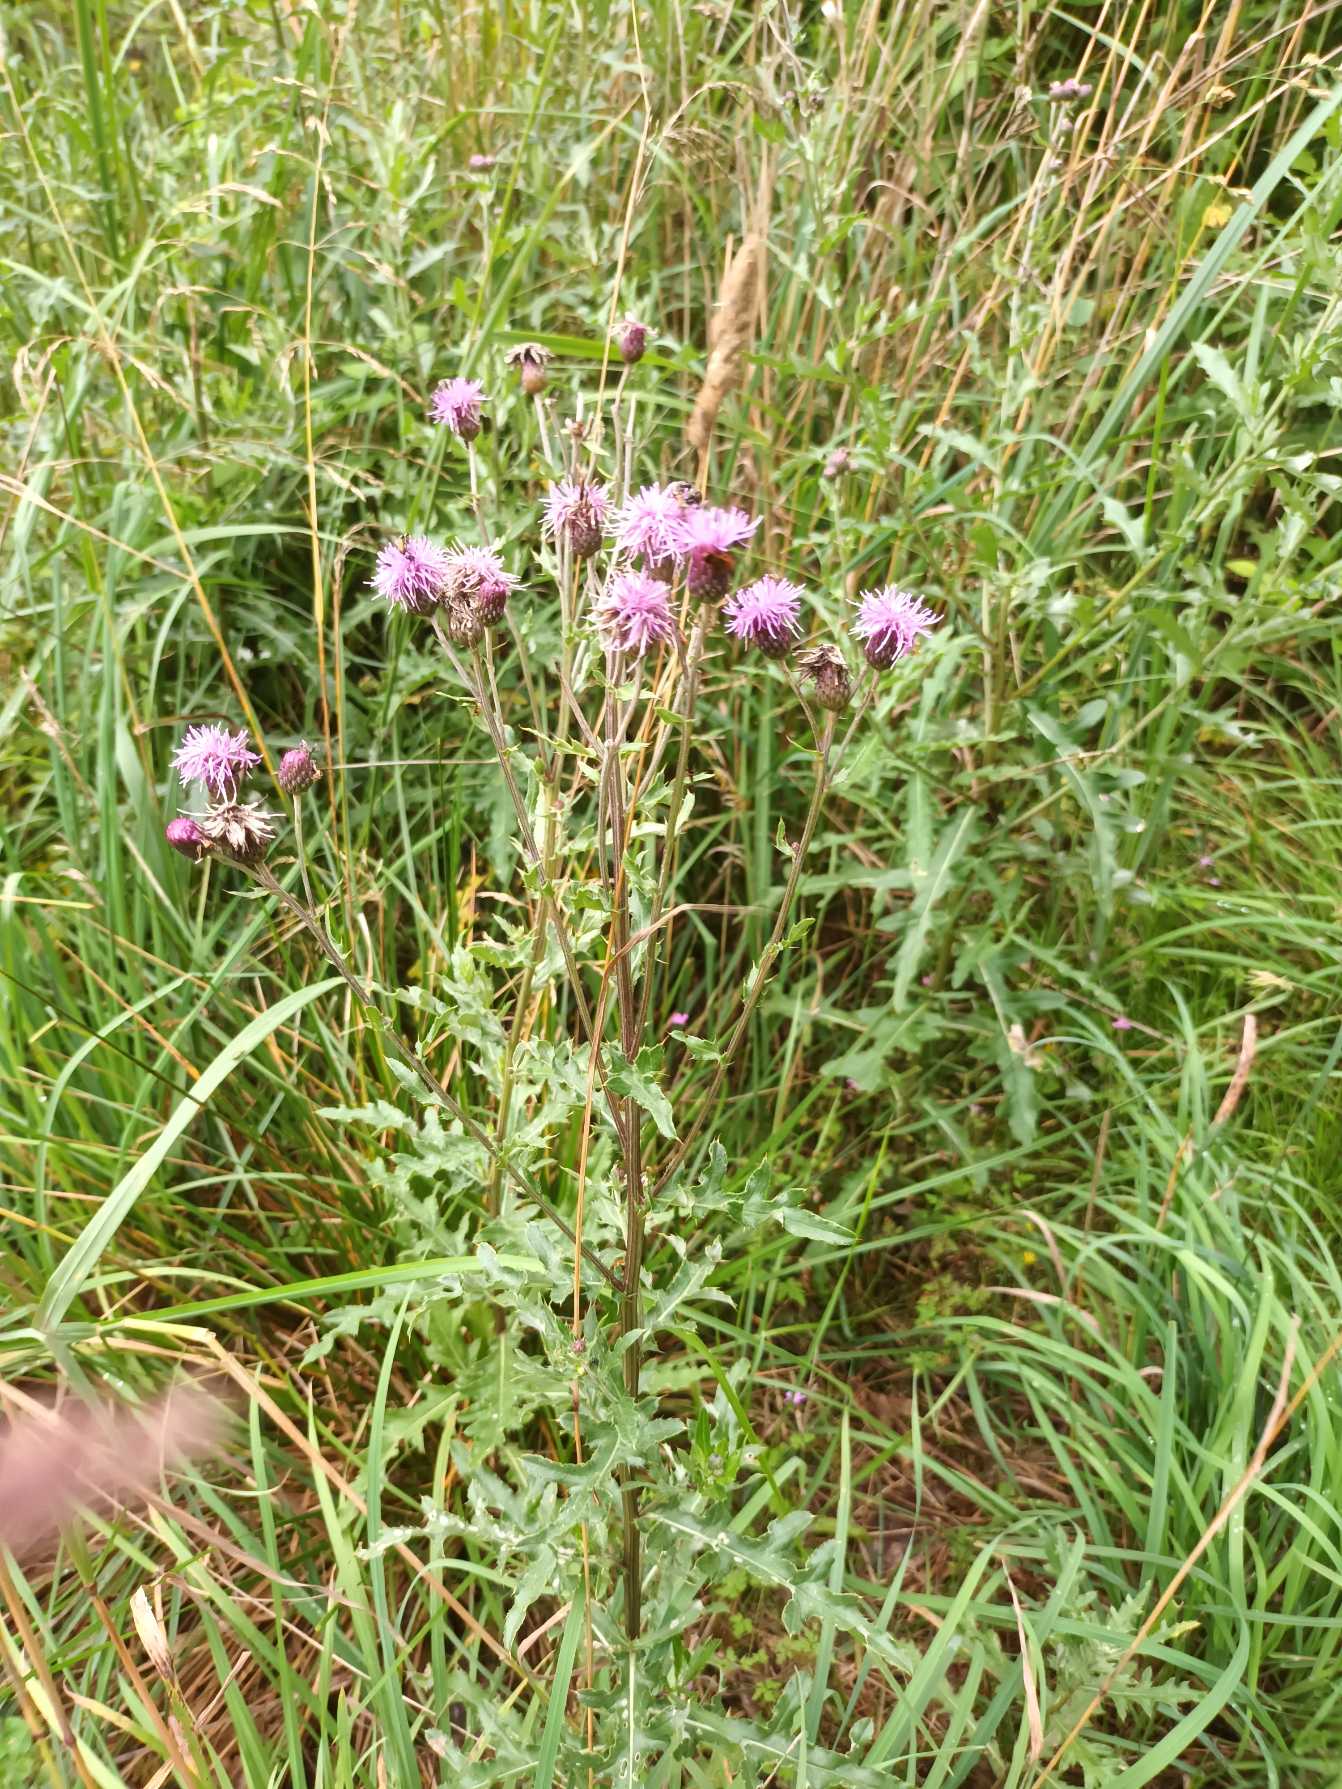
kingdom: Plantae
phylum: Tracheophyta
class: Magnoliopsida
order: Asterales
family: Asteraceae
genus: Cirsium
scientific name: Cirsium arvense
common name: Ager-tidsel
